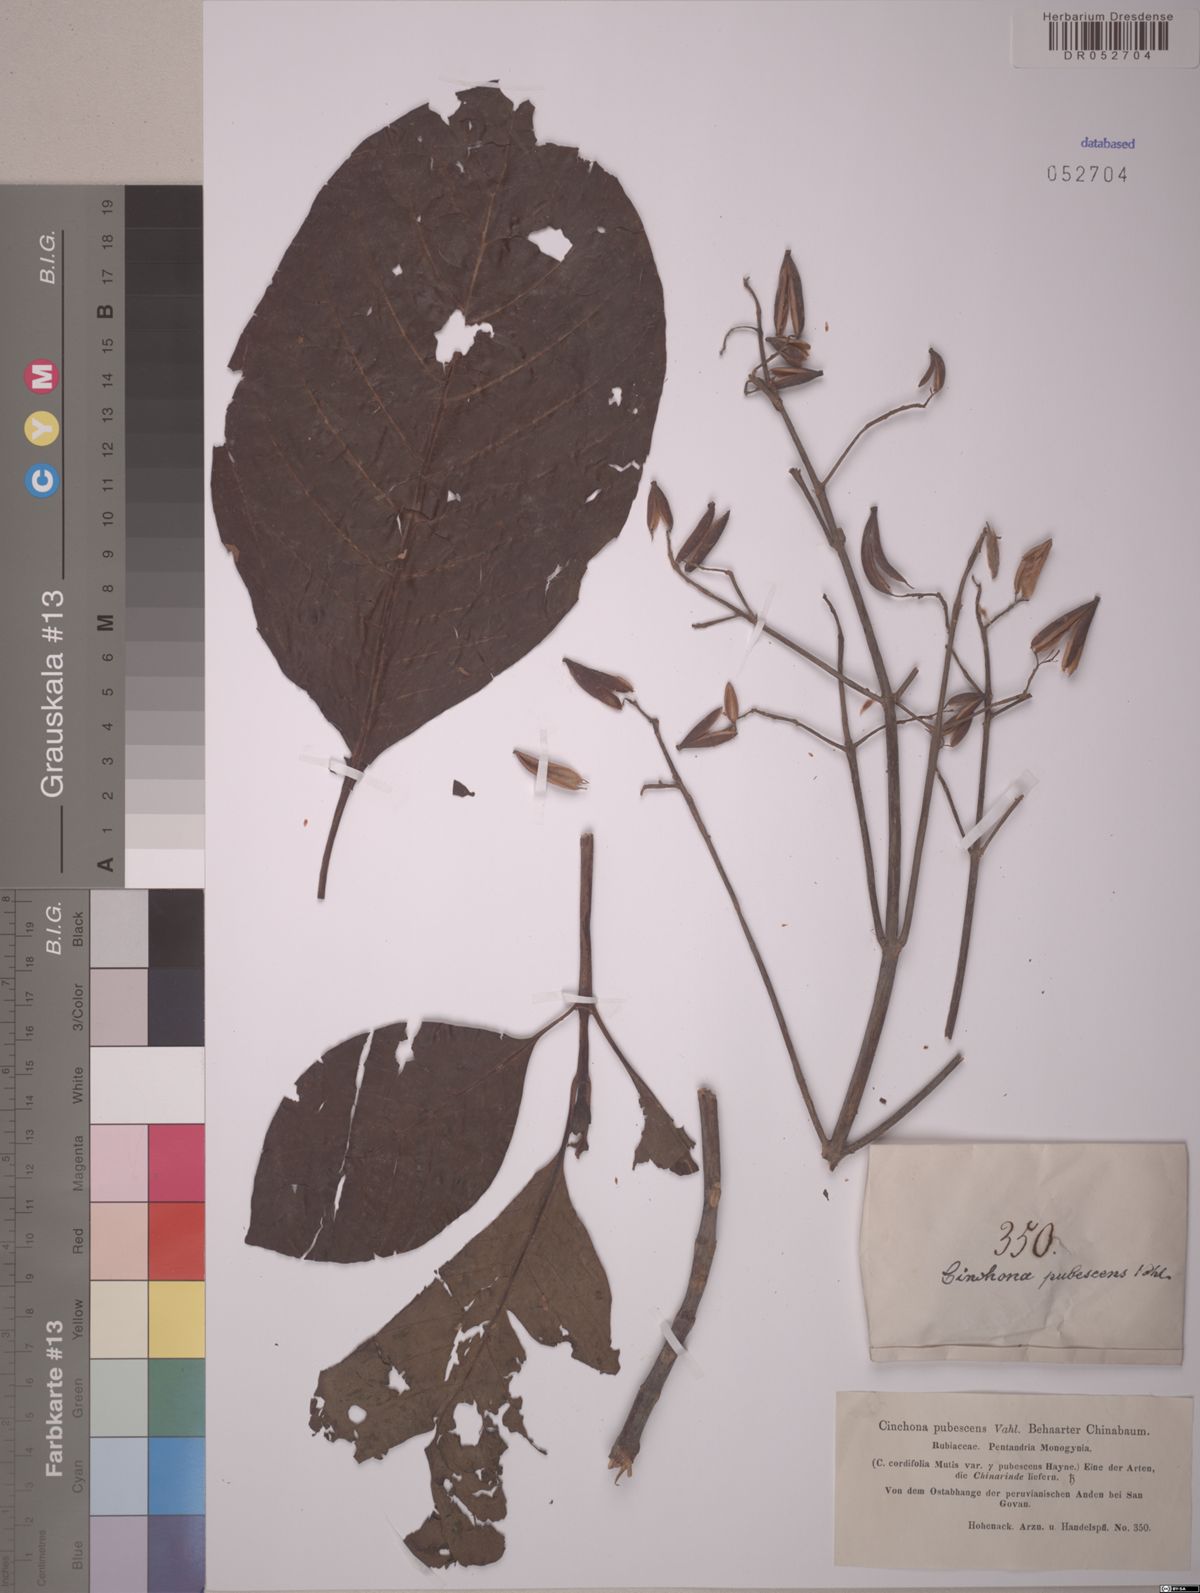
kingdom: Plantae
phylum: Tracheophyta
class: Magnoliopsida
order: Gentianales
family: Rubiaceae
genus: Cinchona
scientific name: Cinchona pubescens
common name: Quinine
